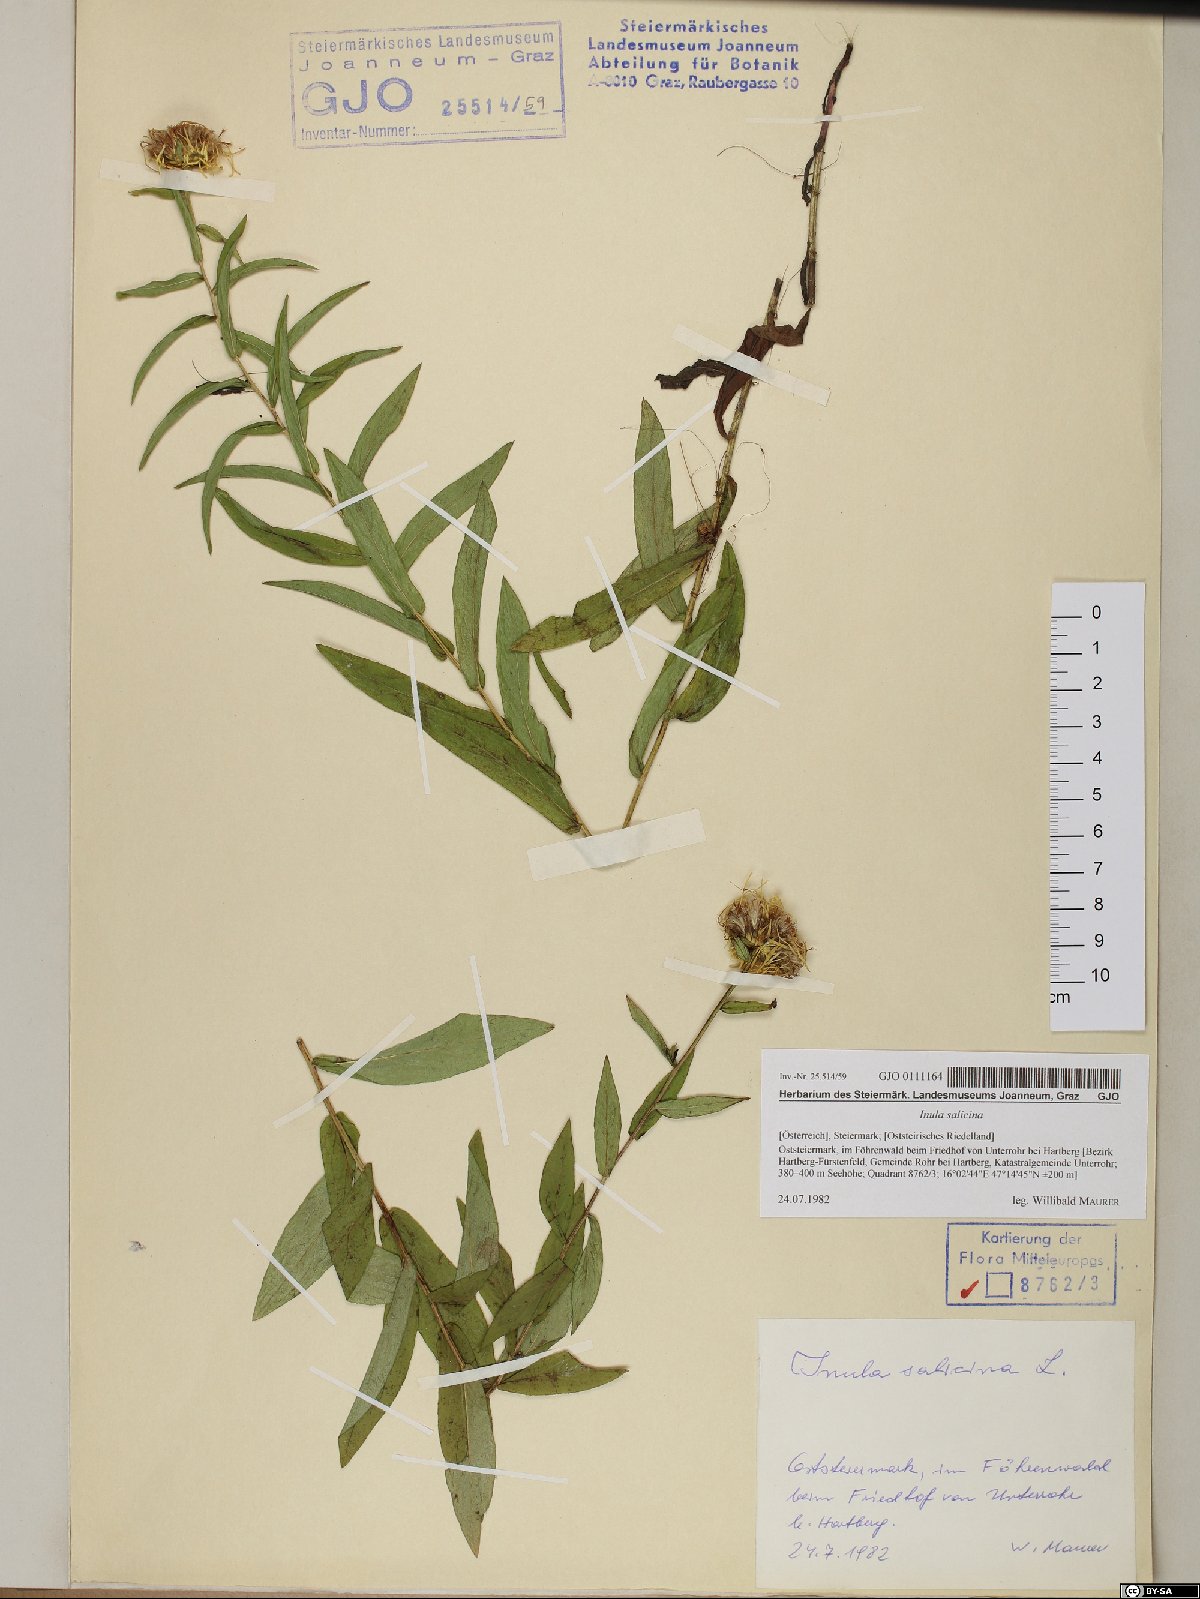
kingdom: Plantae
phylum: Tracheophyta
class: Magnoliopsida
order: Asterales
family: Asteraceae
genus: Pentanema
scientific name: Pentanema salicinum
